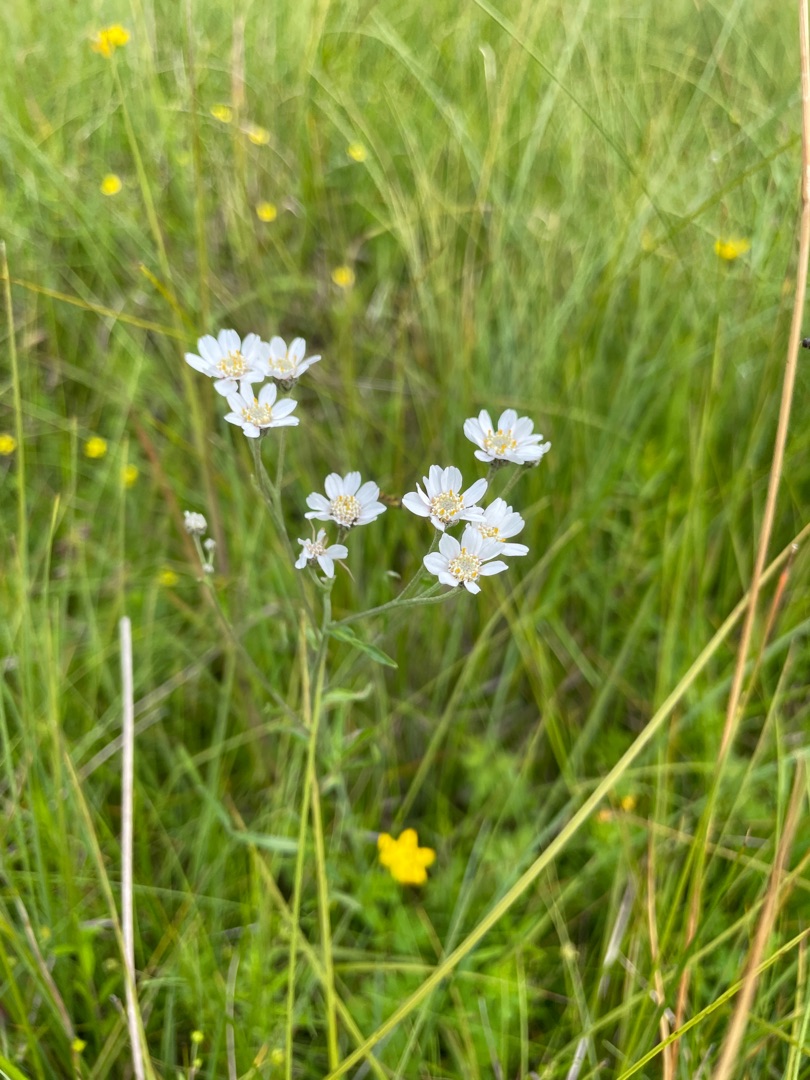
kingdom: Plantae
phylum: Tracheophyta
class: Magnoliopsida
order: Asterales
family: Asteraceae
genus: Achillea
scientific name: Achillea ptarmica
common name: Nyse-røllike
